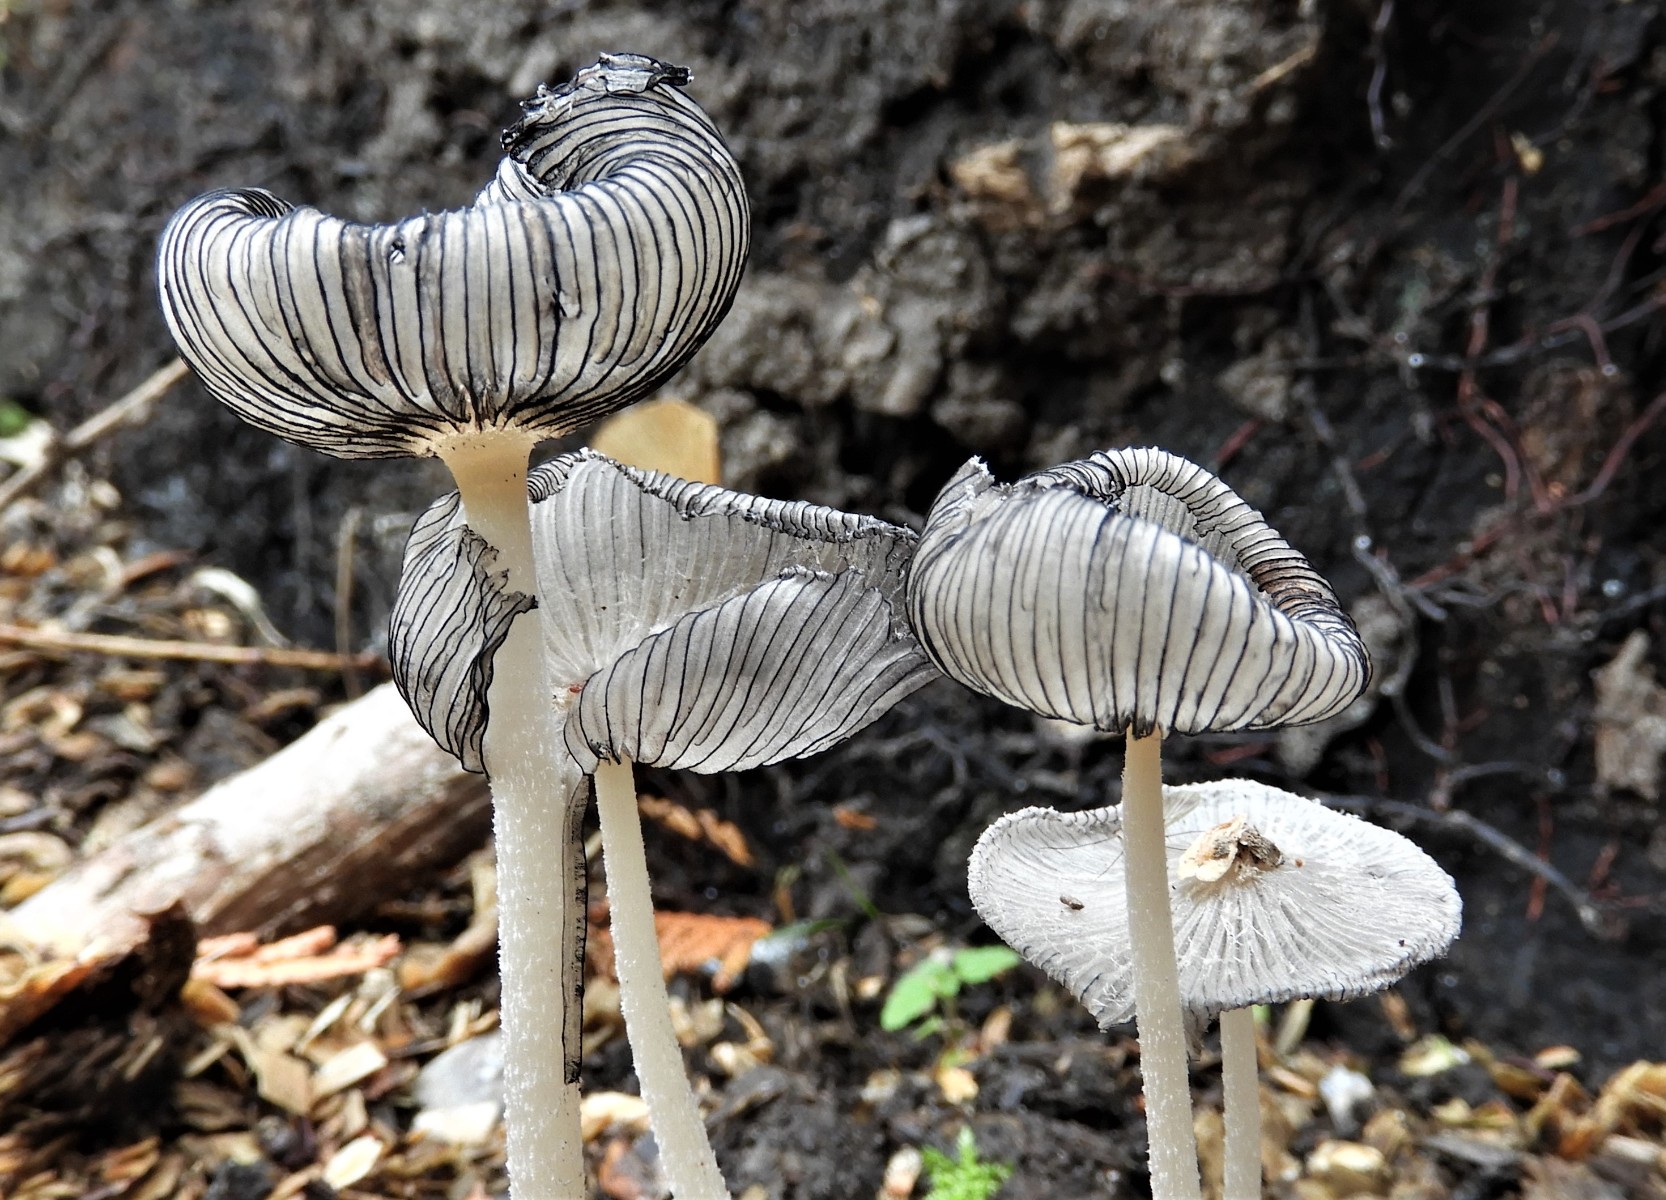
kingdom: Fungi
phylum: Basidiomycota
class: Agaricomycetes
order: Agaricales
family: Psathyrellaceae
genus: Coprinopsis
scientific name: Coprinopsis lagopus
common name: dunstokket blækhat
